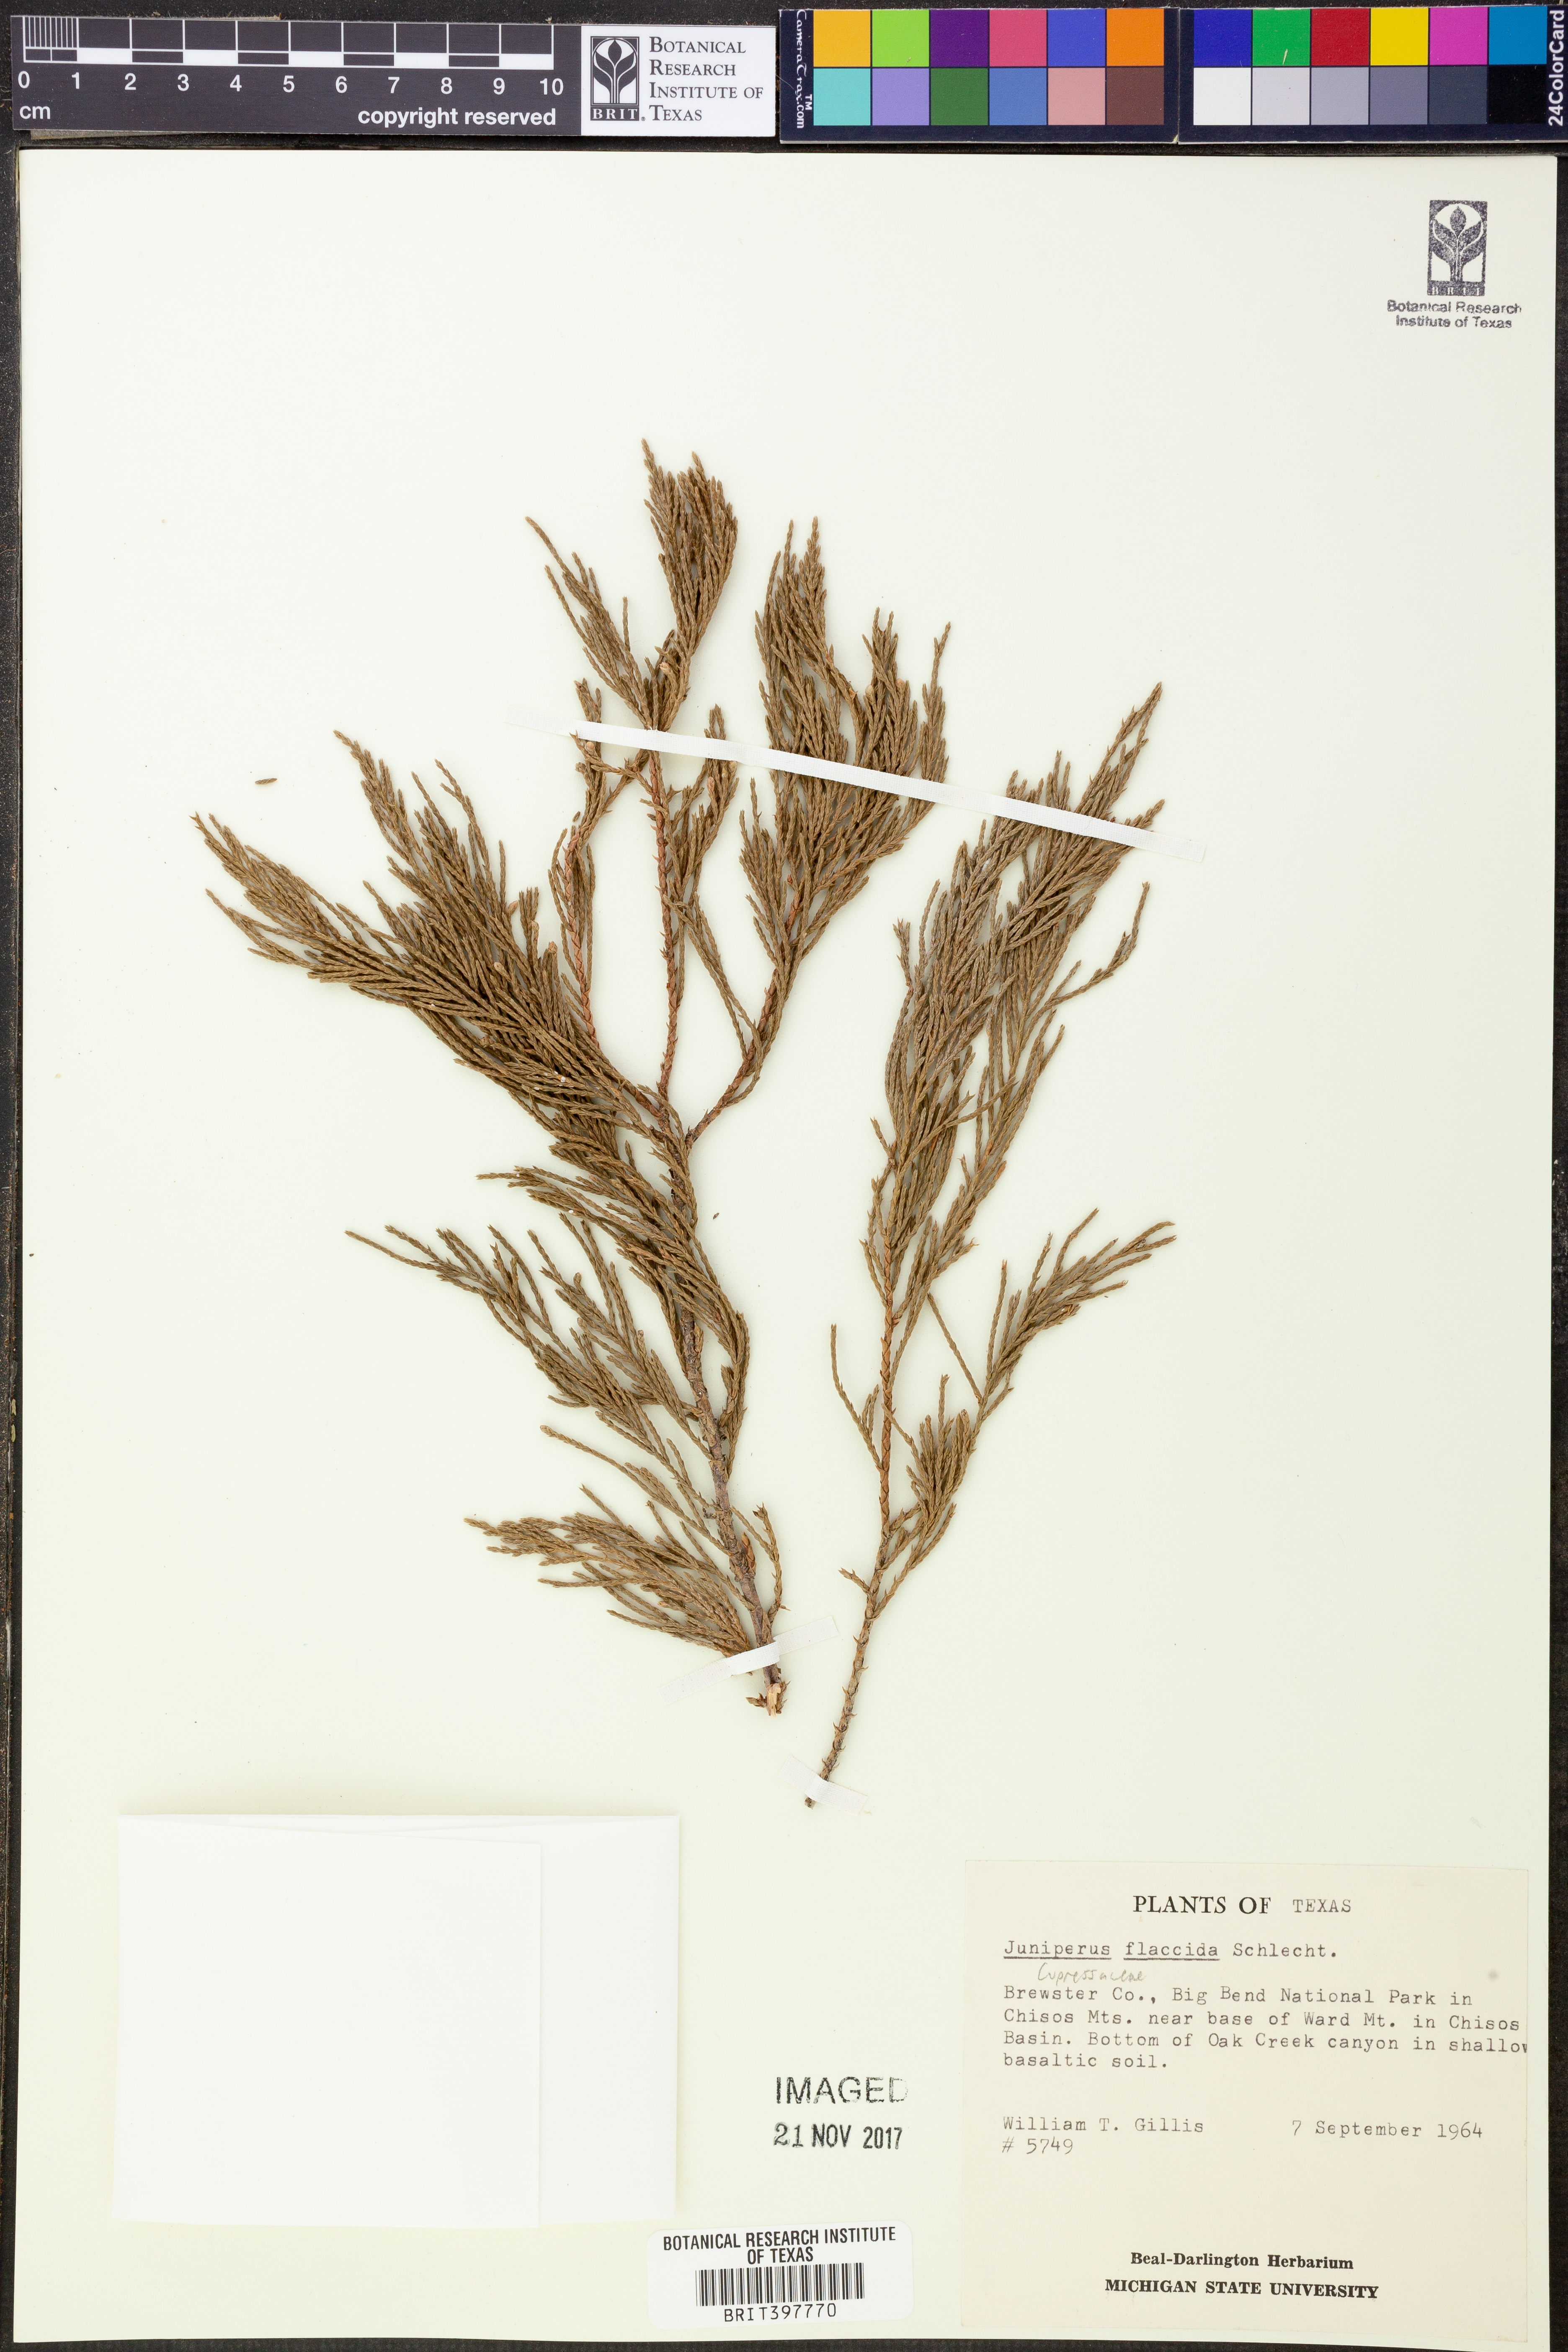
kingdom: Plantae
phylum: Tracheophyta
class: Pinopsida
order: Pinales
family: Cupressaceae
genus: Juniperus
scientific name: Juniperus flaccida
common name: Drooping juniper
